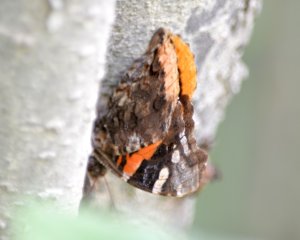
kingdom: Animalia
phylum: Arthropoda
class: Insecta
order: Lepidoptera
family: Nymphalidae
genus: Vanessa
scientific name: Vanessa atalanta
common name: Red Admiral
